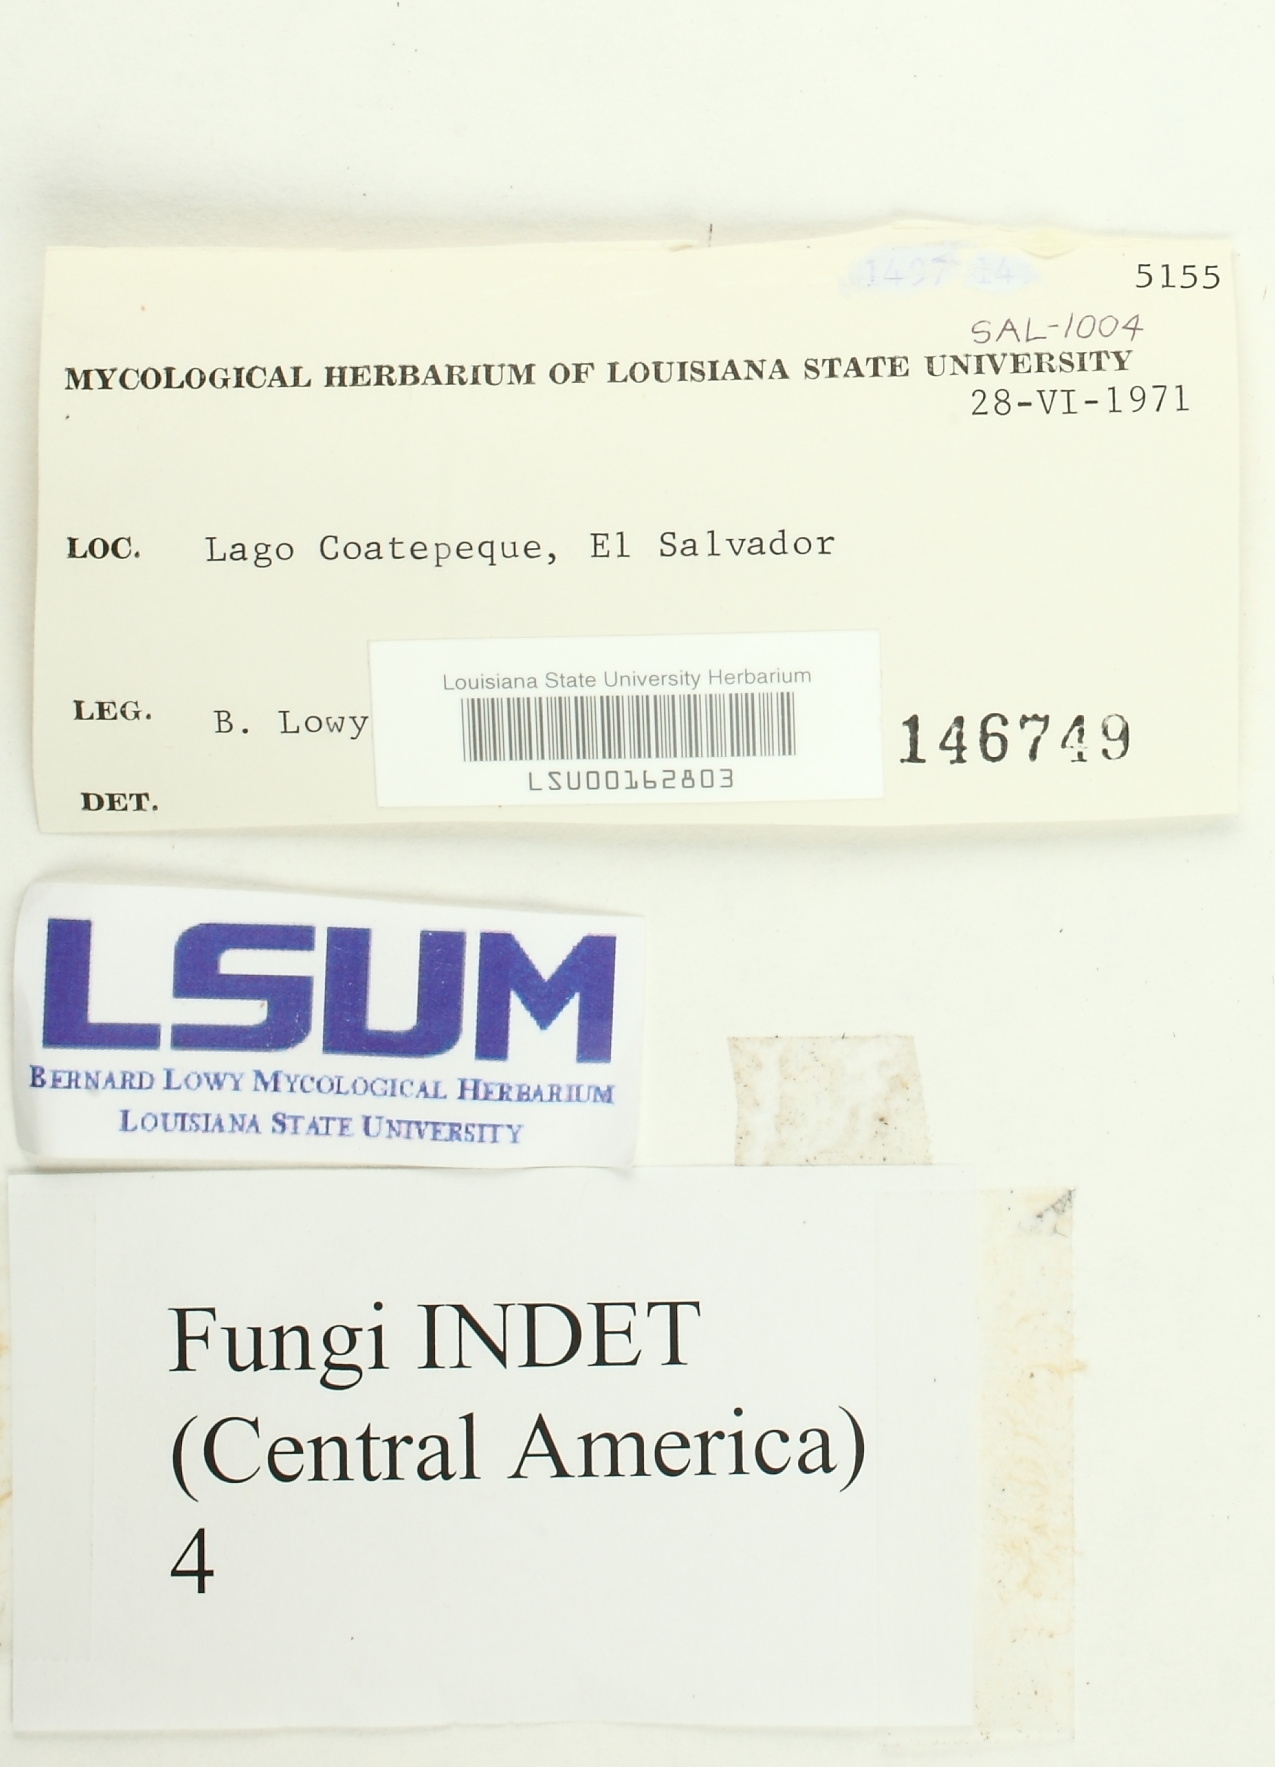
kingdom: Fungi
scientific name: Fungi
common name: Fungi
